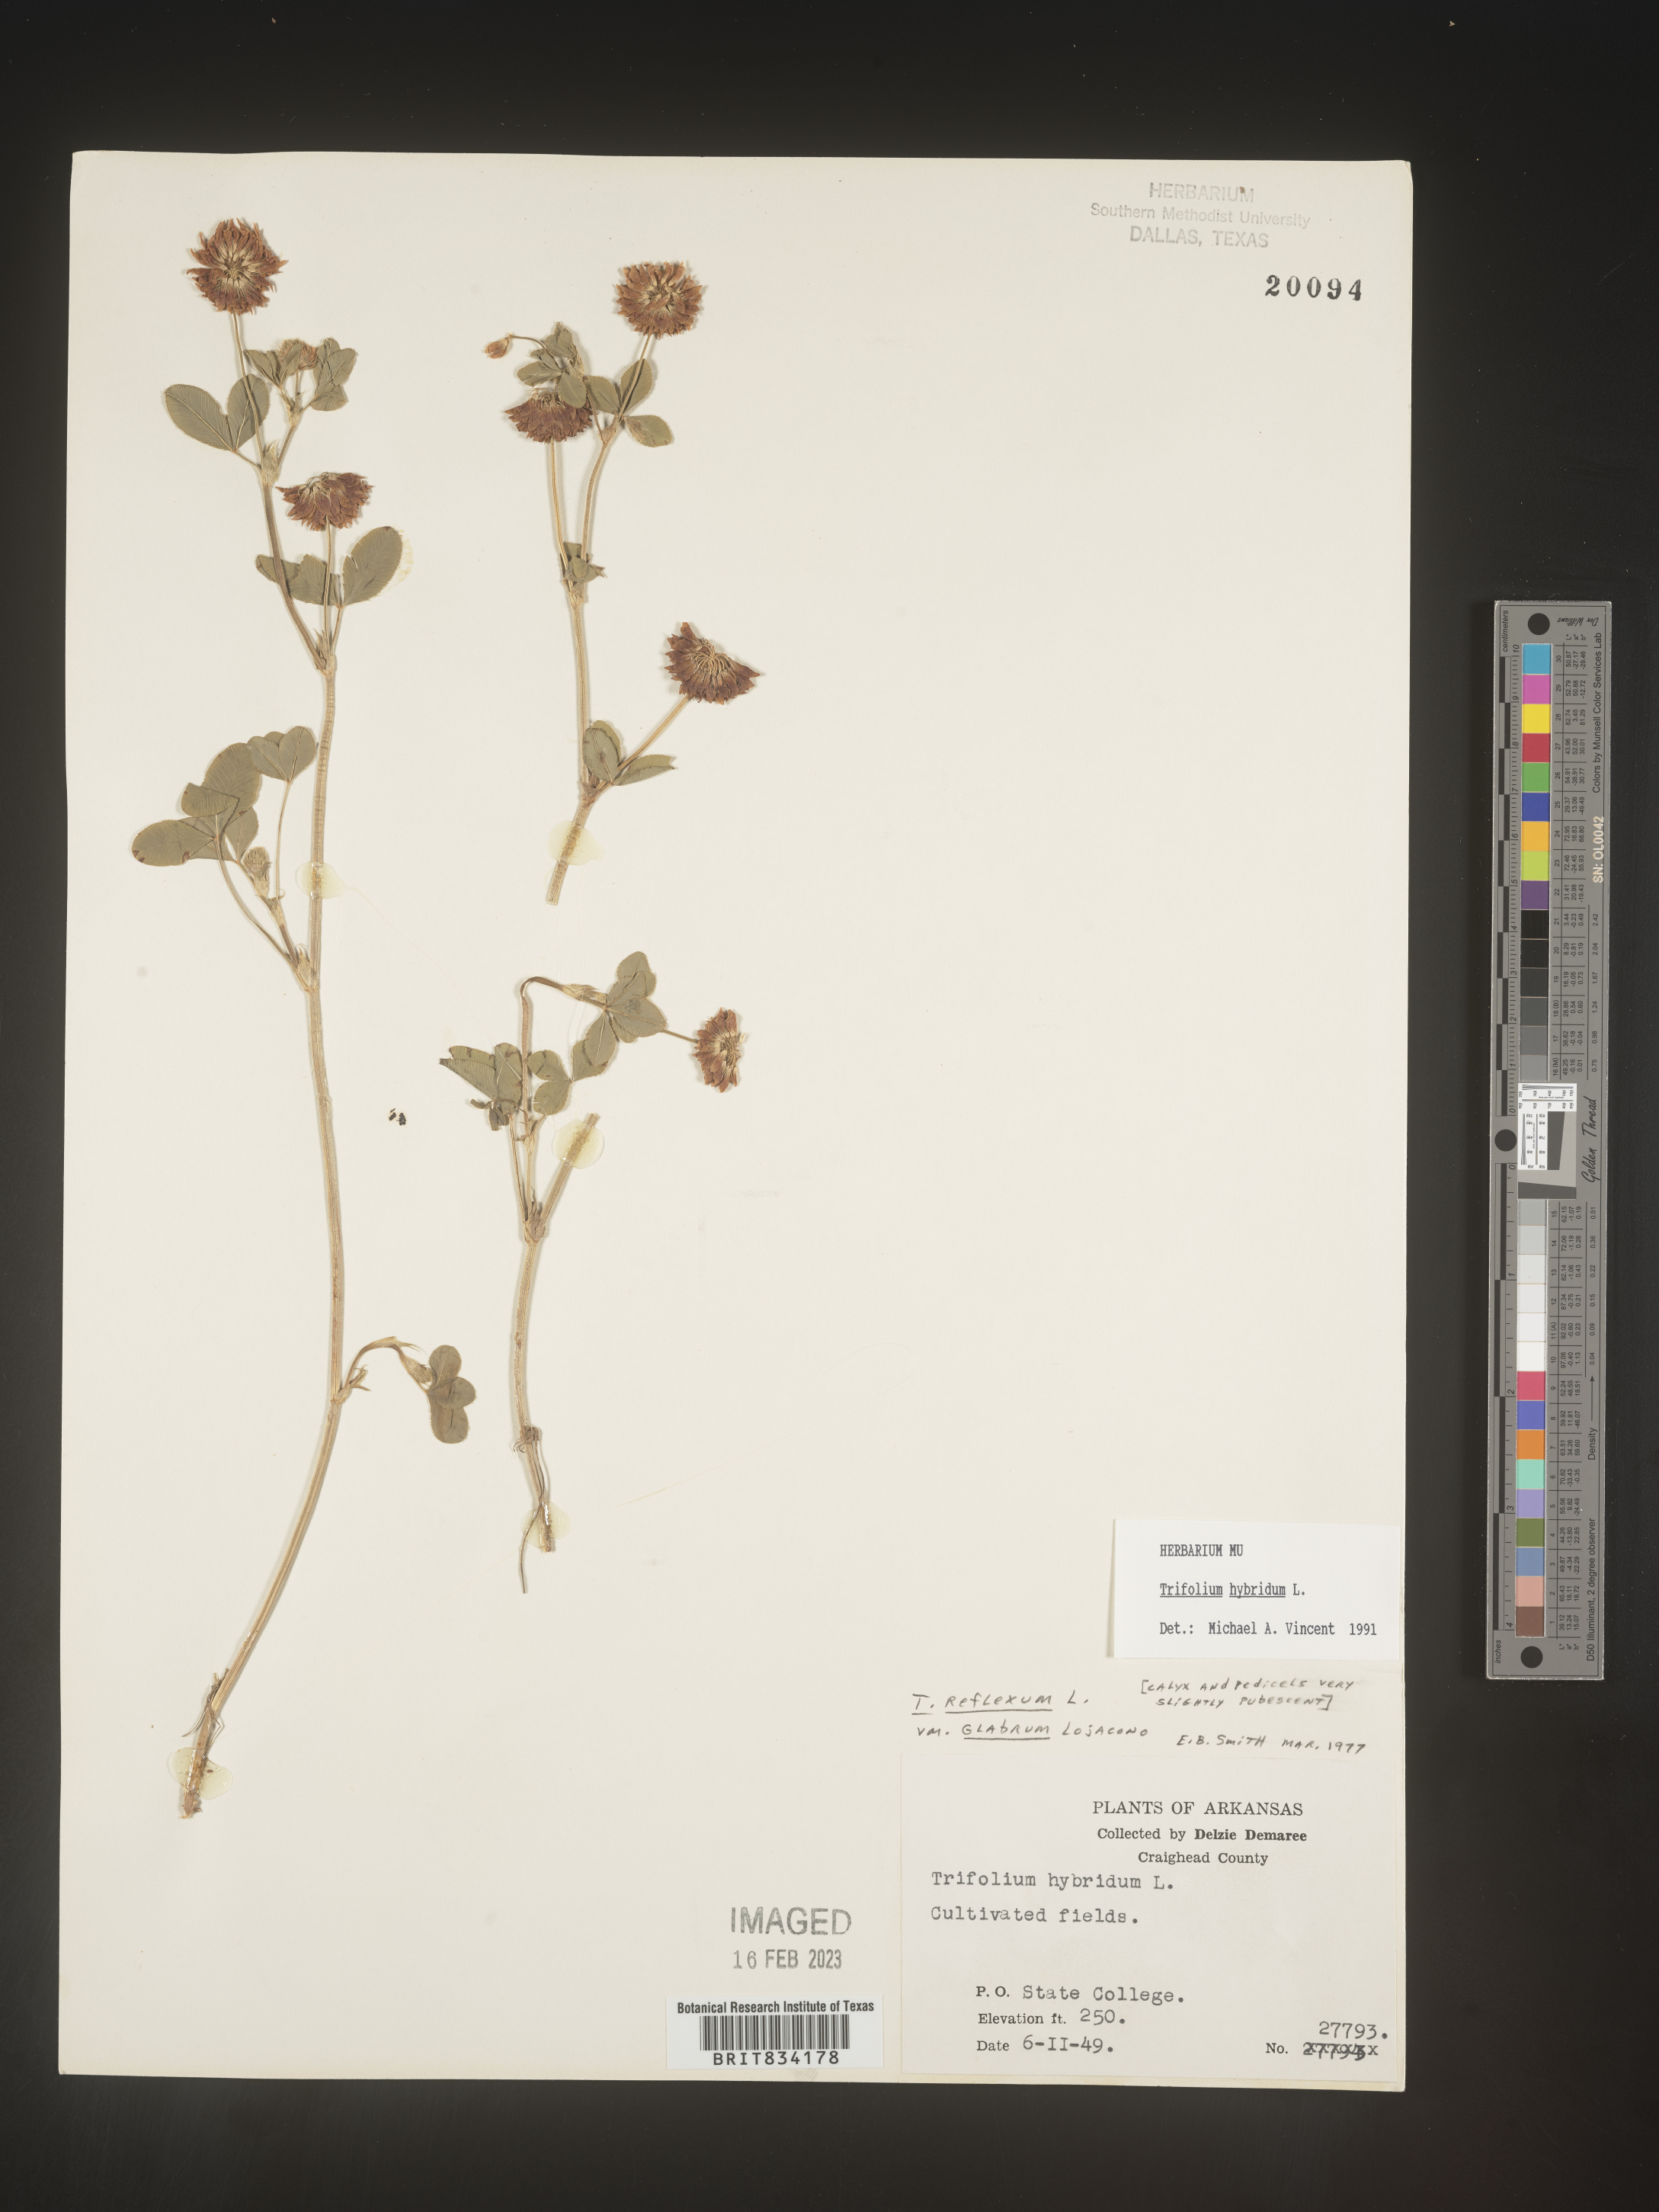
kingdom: Plantae
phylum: Tracheophyta
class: Magnoliopsida
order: Fabales
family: Fabaceae
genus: Trifolium
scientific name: Trifolium hybridum
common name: Alsike clover
